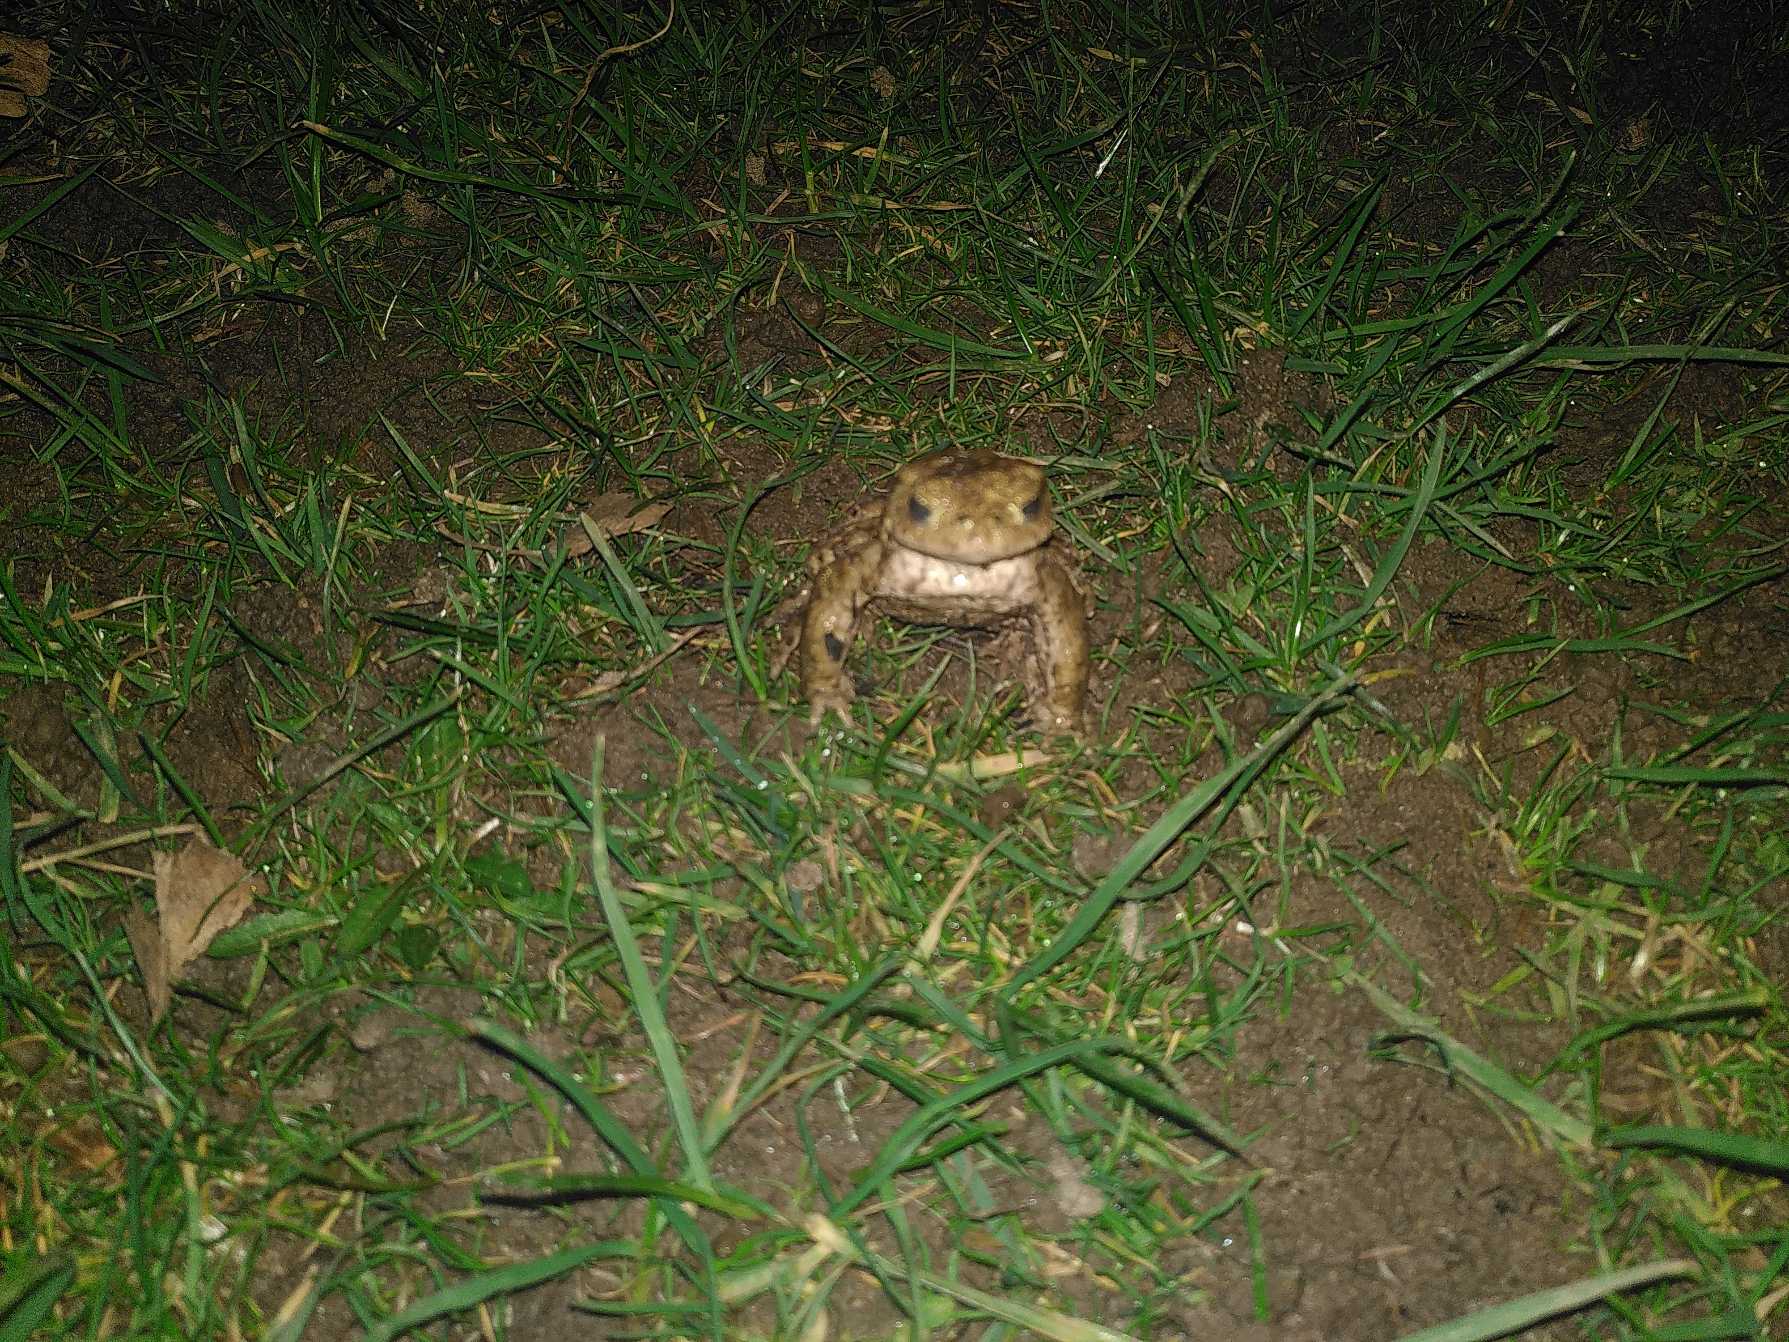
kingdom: Animalia
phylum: Chordata
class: Amphibia
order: Anura
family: Bufonidae
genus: Bufo
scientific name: Bufo bufo
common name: Skrubtudse
